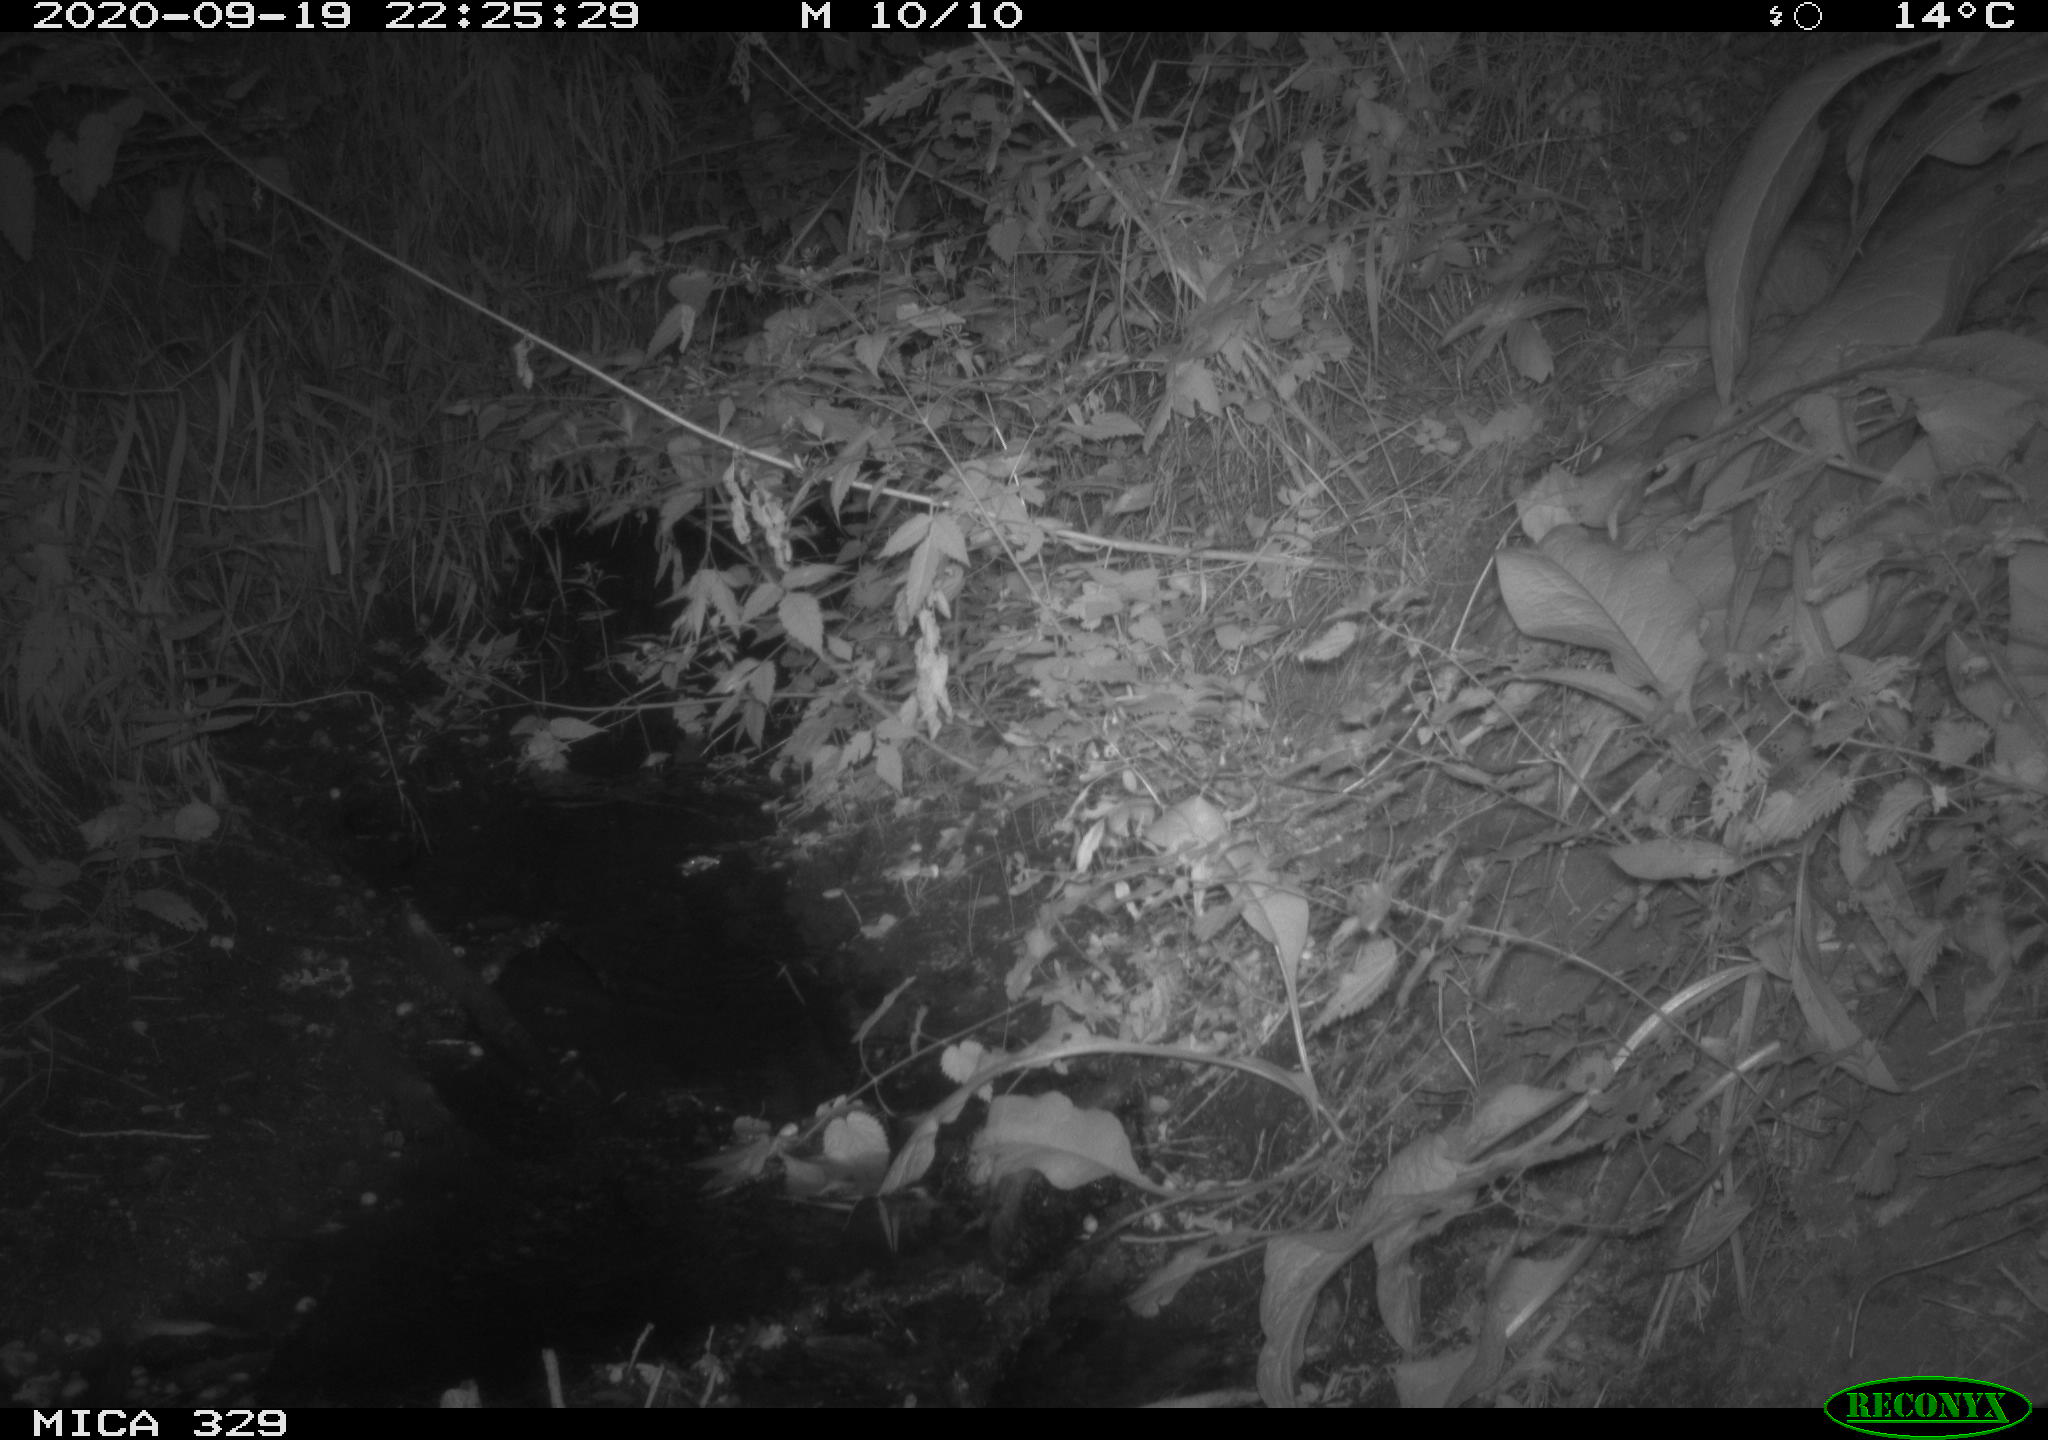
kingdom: Animalia
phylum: Chordata
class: Mammalia
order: Rodentia
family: Muridae
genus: Rattus
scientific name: Rattus norvegicus
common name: Brown rat
